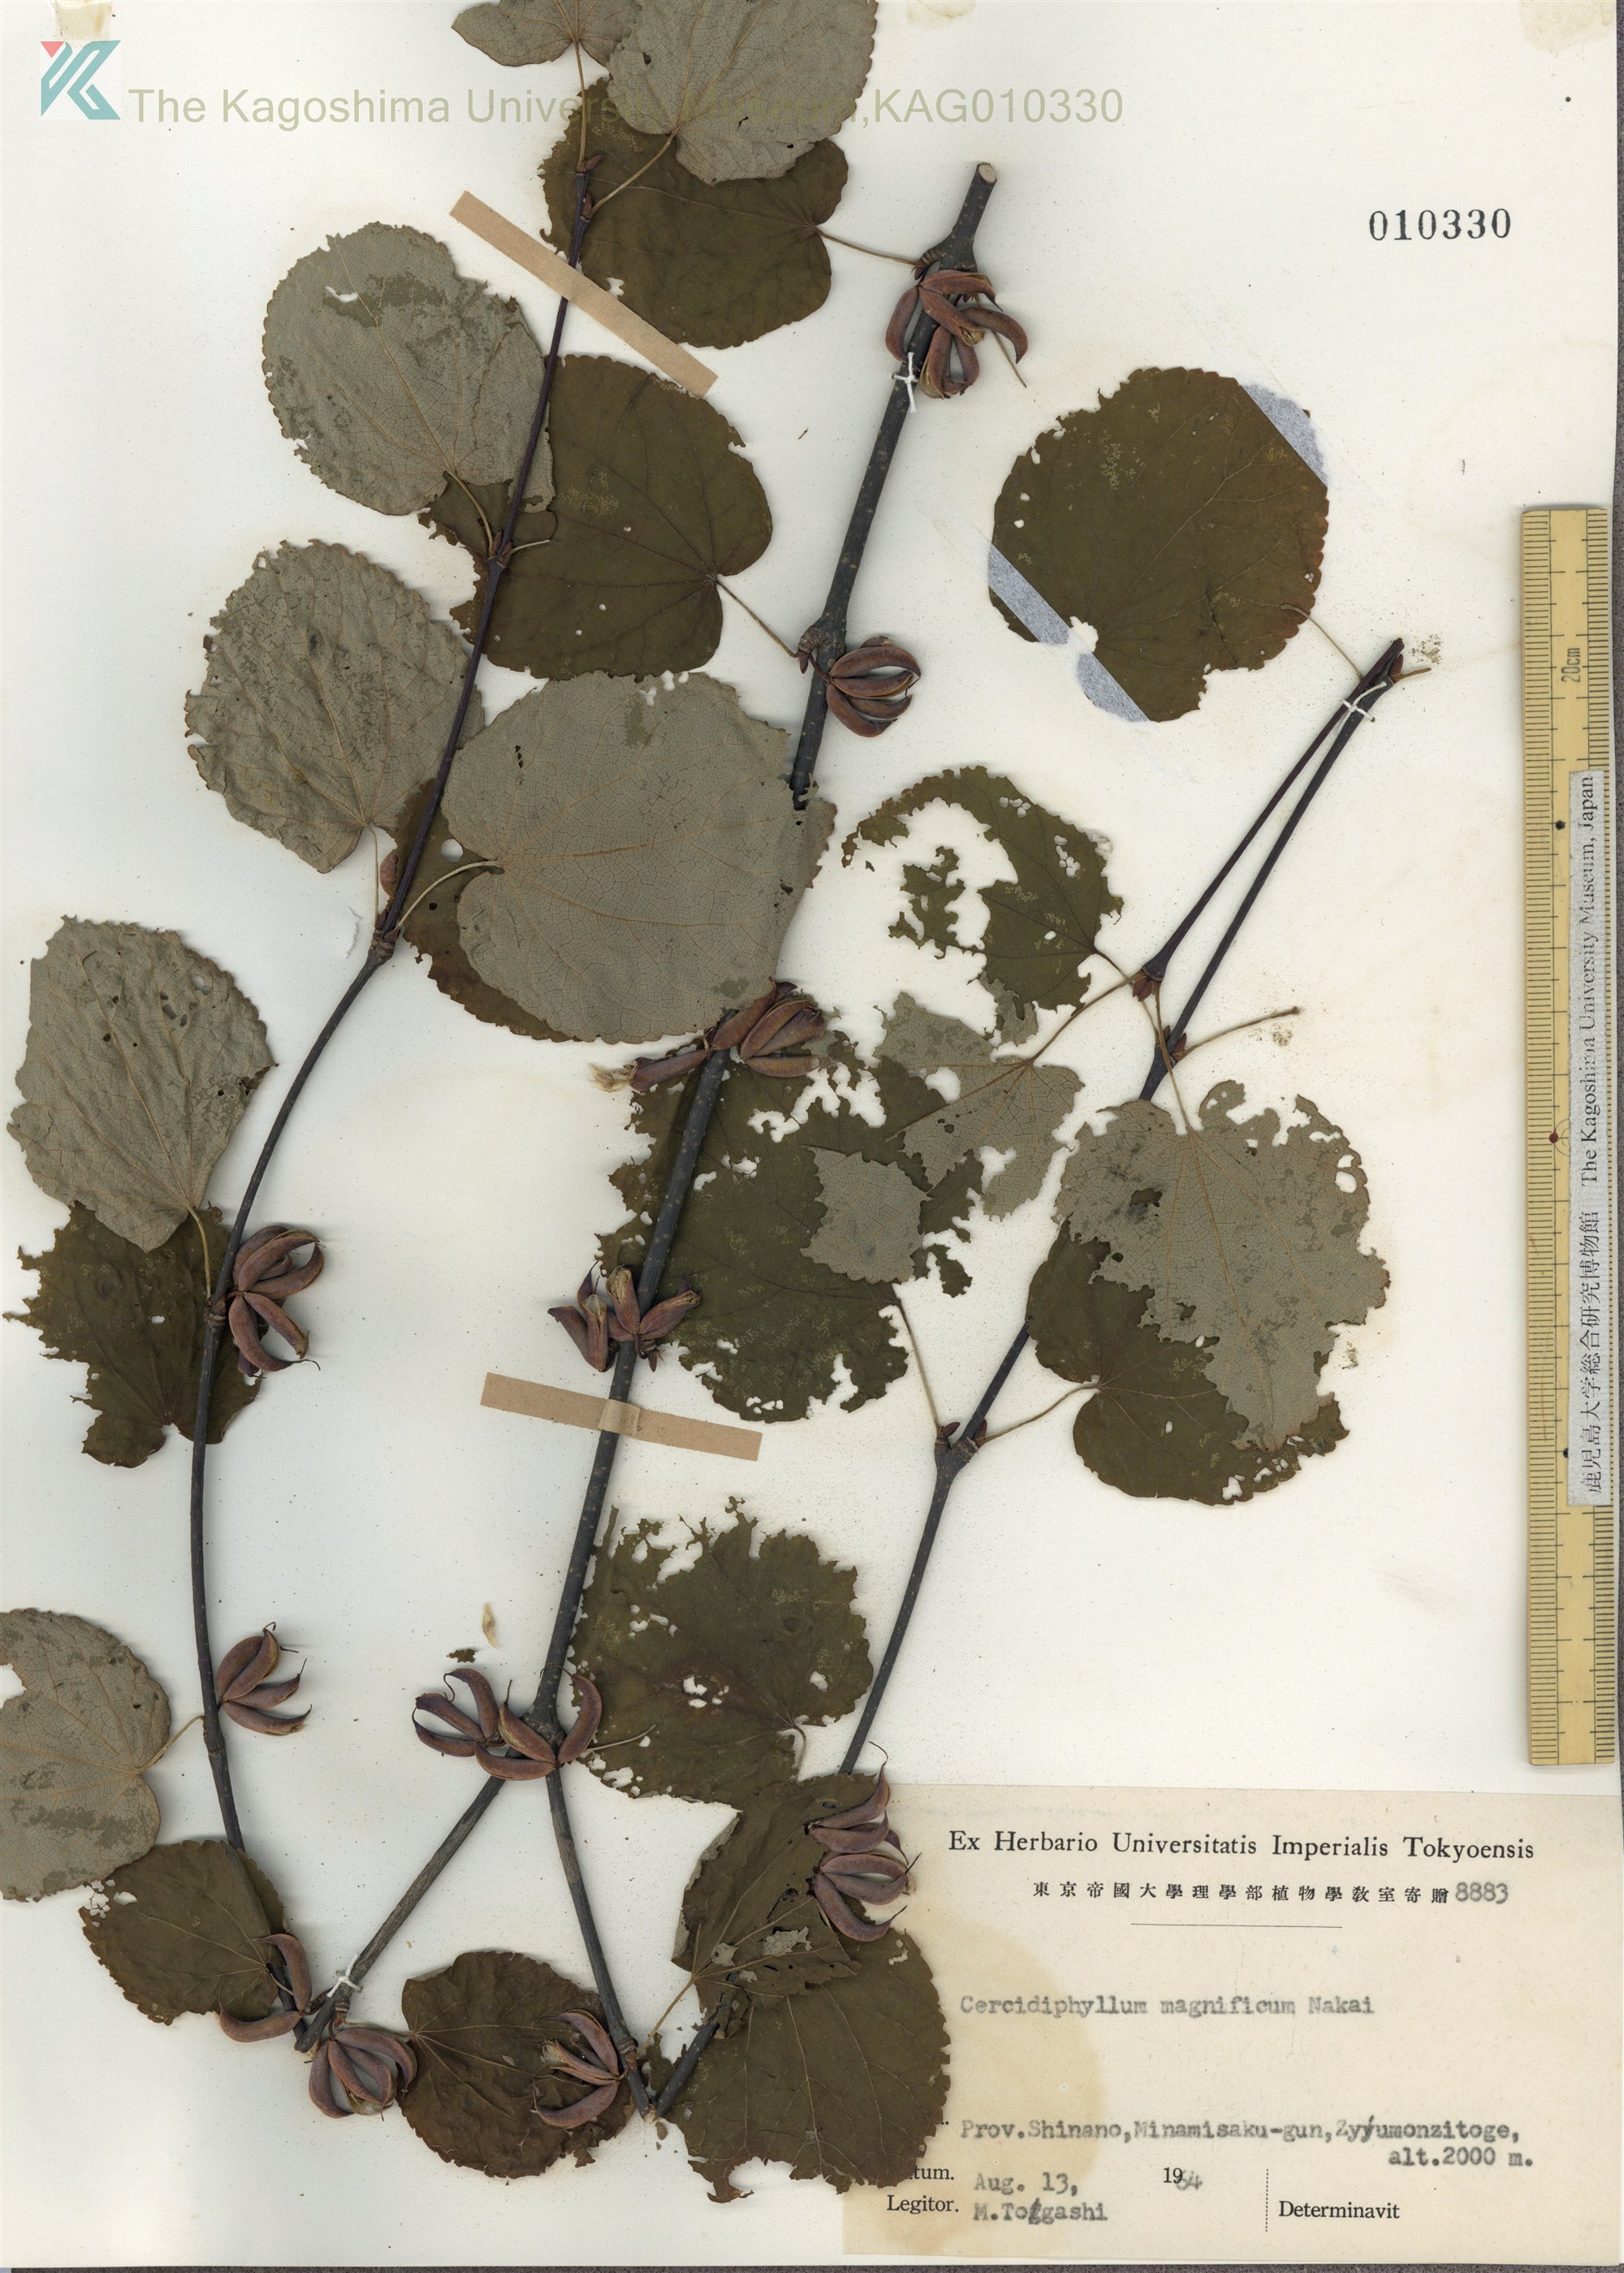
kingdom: Plantae
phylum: Tracheophyta
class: Magnoliopsida
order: Saxifragales
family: Cercidiphyllaceae
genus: Cercidiphyllum
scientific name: Cercidiphyllum magnificum
